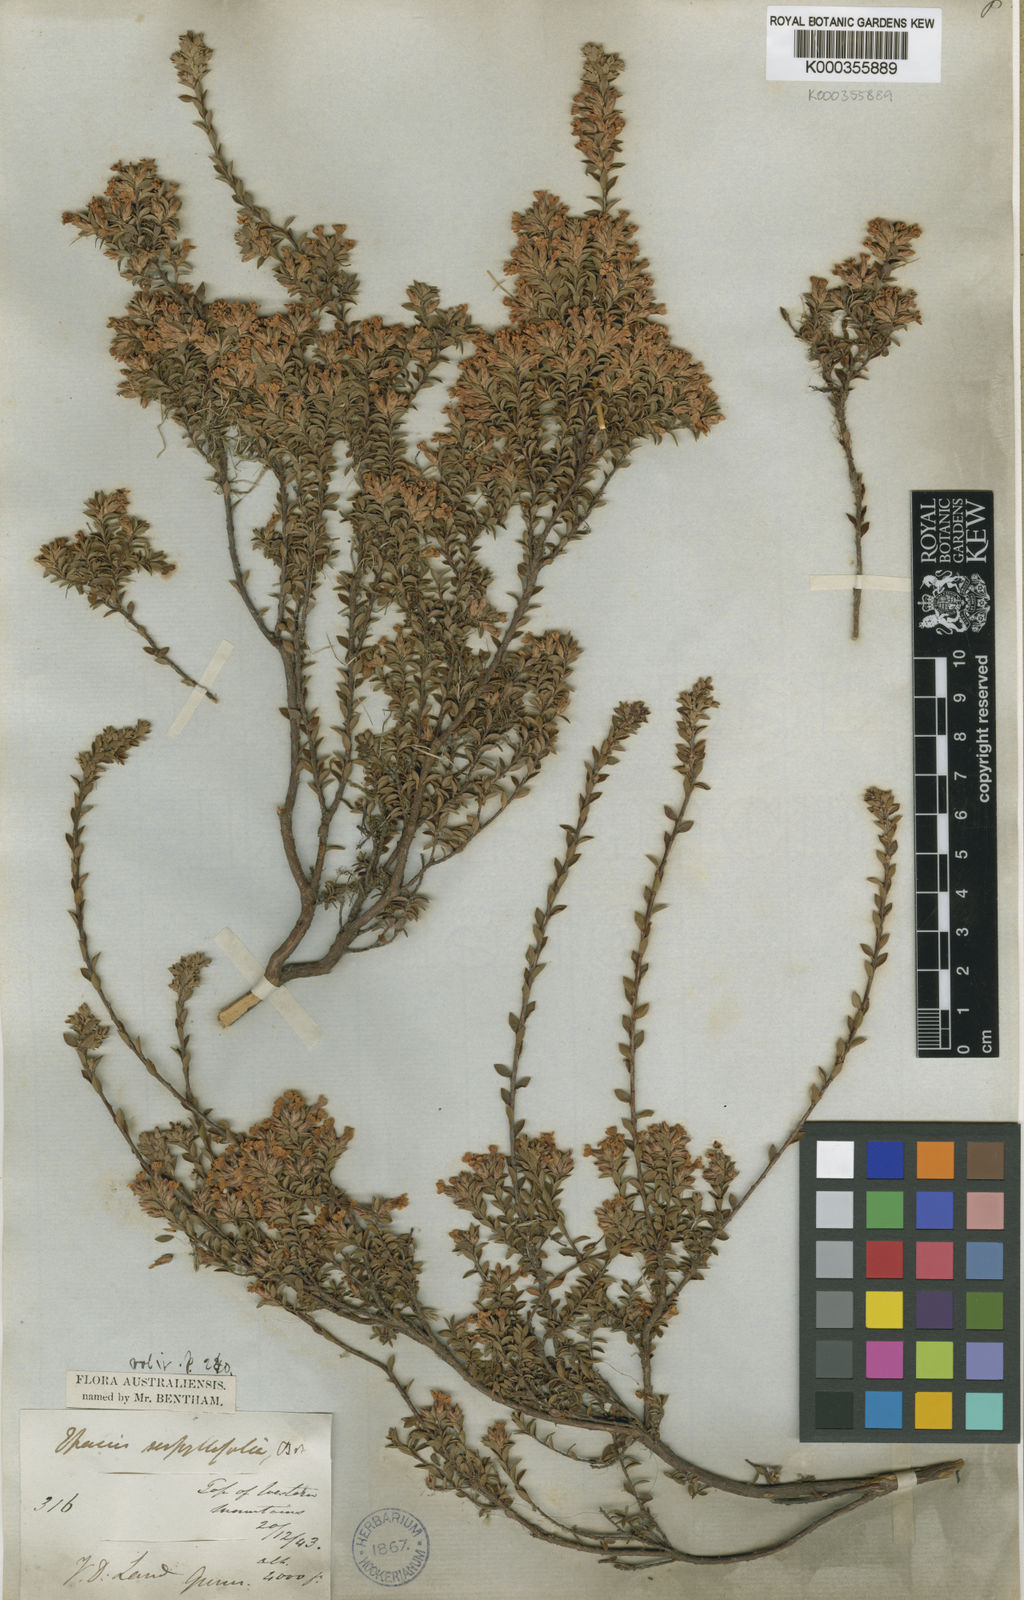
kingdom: Plantae
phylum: Tracheophyta
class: Magnoliopsida
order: Ericales
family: Ericaceae
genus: Epacris
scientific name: Epacris serpyllifolia
